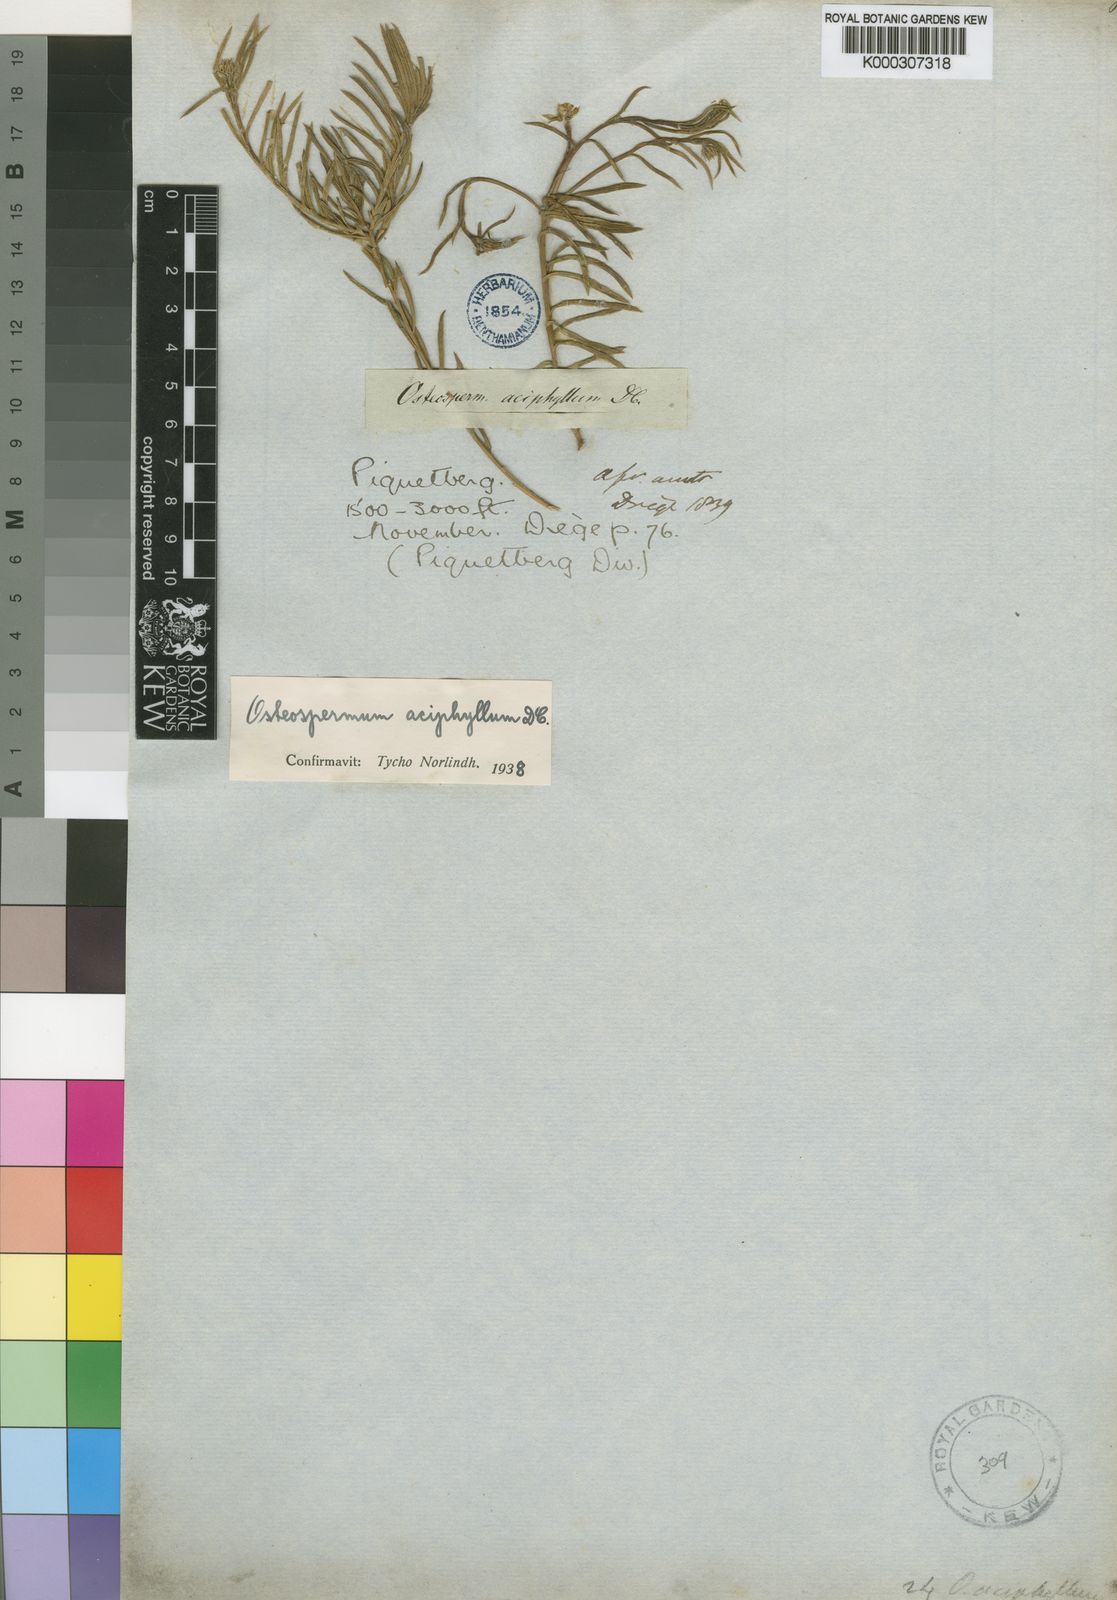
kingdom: Plantae
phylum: Tracheophyta
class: Magnoliopsida
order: Asterales
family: Asteraceae
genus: Osteospermum
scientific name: Osteospermum aciphyllum
